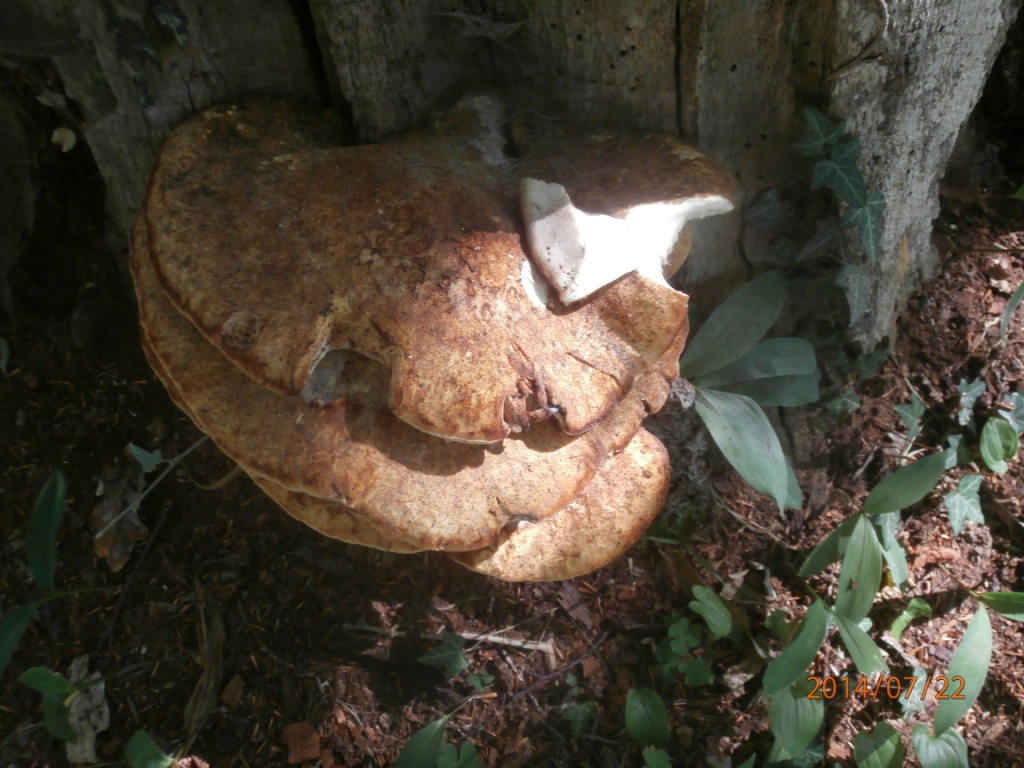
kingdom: Fungi
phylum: Basidiomycota
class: Agaricomycetes
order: Polyporales
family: Fomitopsidaceae
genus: Buglossoporus
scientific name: Buglossoporus quercinus
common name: egetunge
